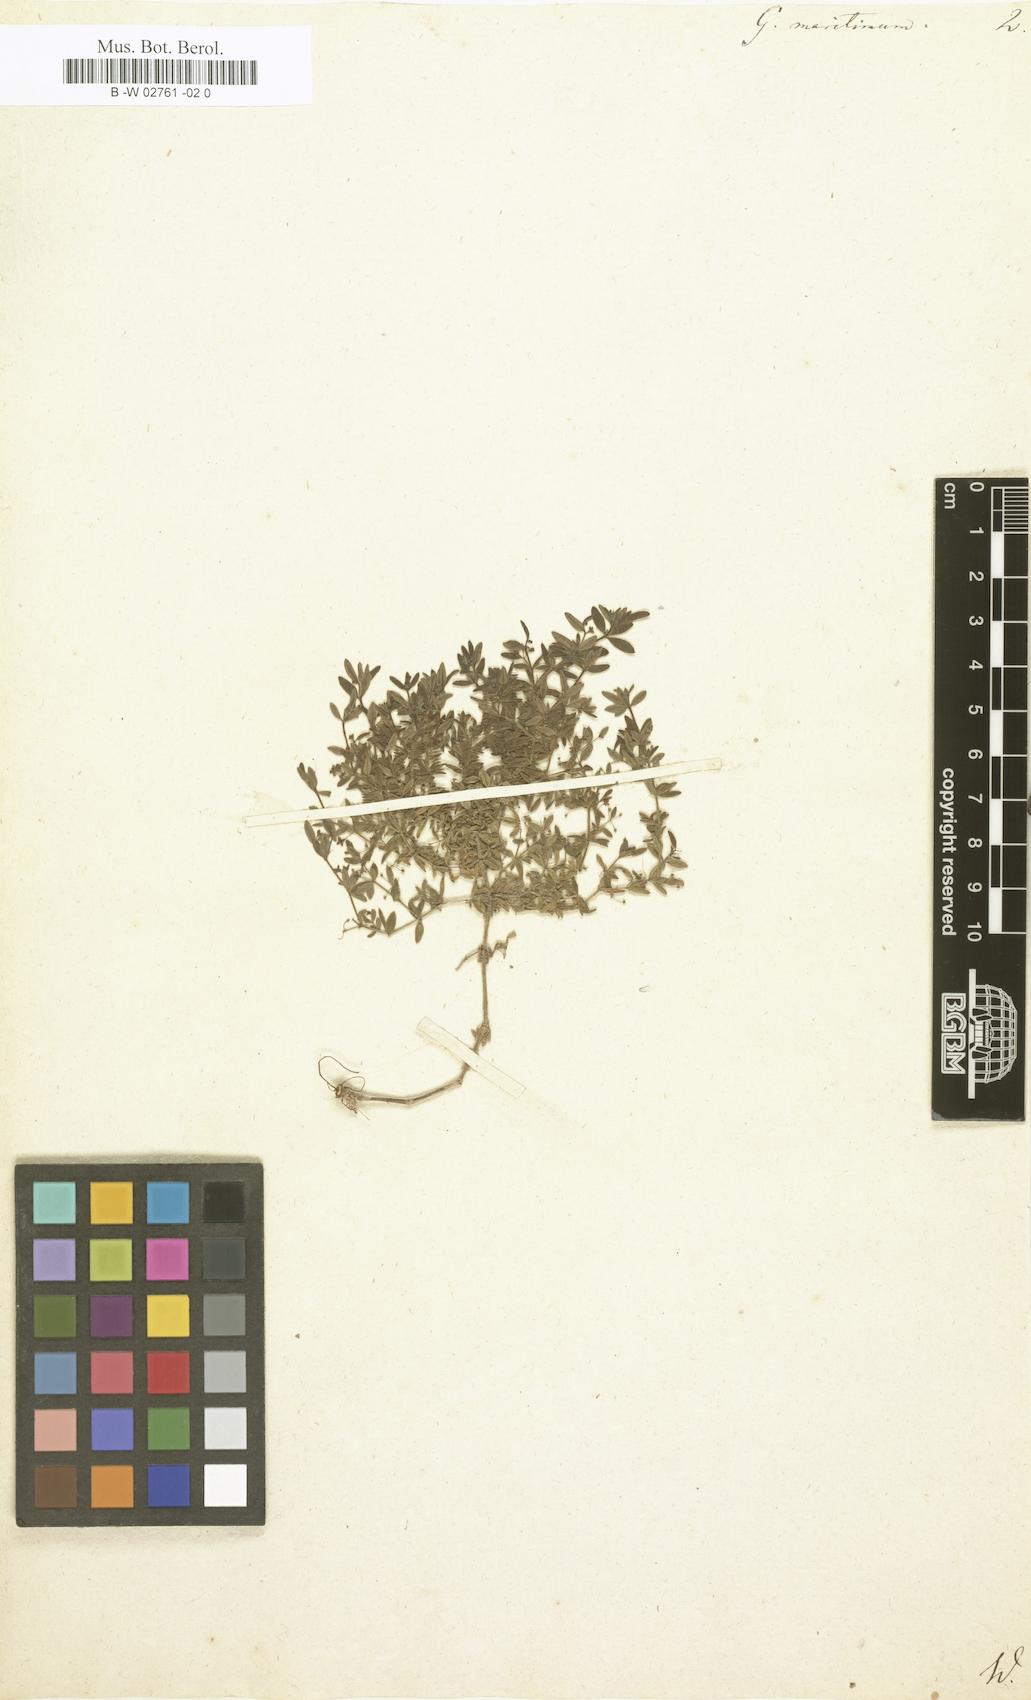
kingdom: Plantae
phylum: Tracheophyta
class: Magnoliopsida
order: Gentianales
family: Rubiaceae
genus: Galium
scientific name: Galium maritimum
